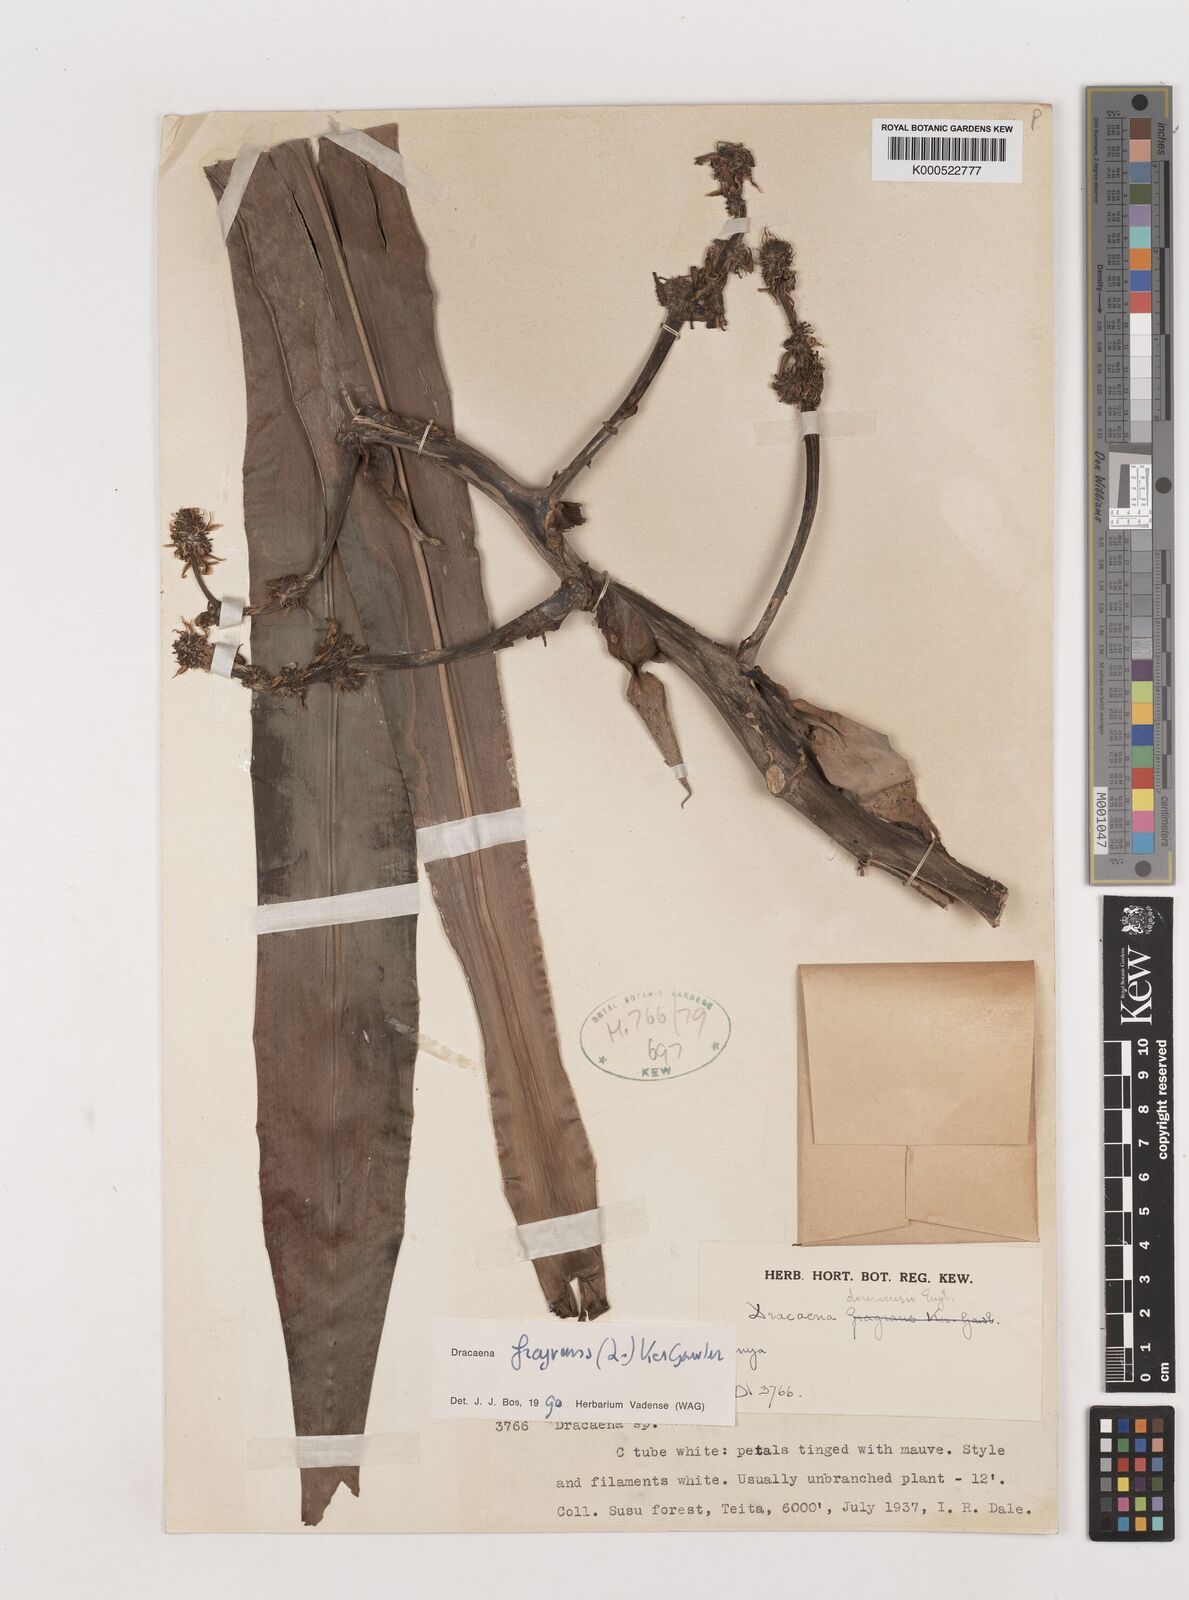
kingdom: Plantae
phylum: Tracheophyta
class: Liliopsida
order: Asparagales
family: Asparagaceae
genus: Dracaena
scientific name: Dracaena fragrans
